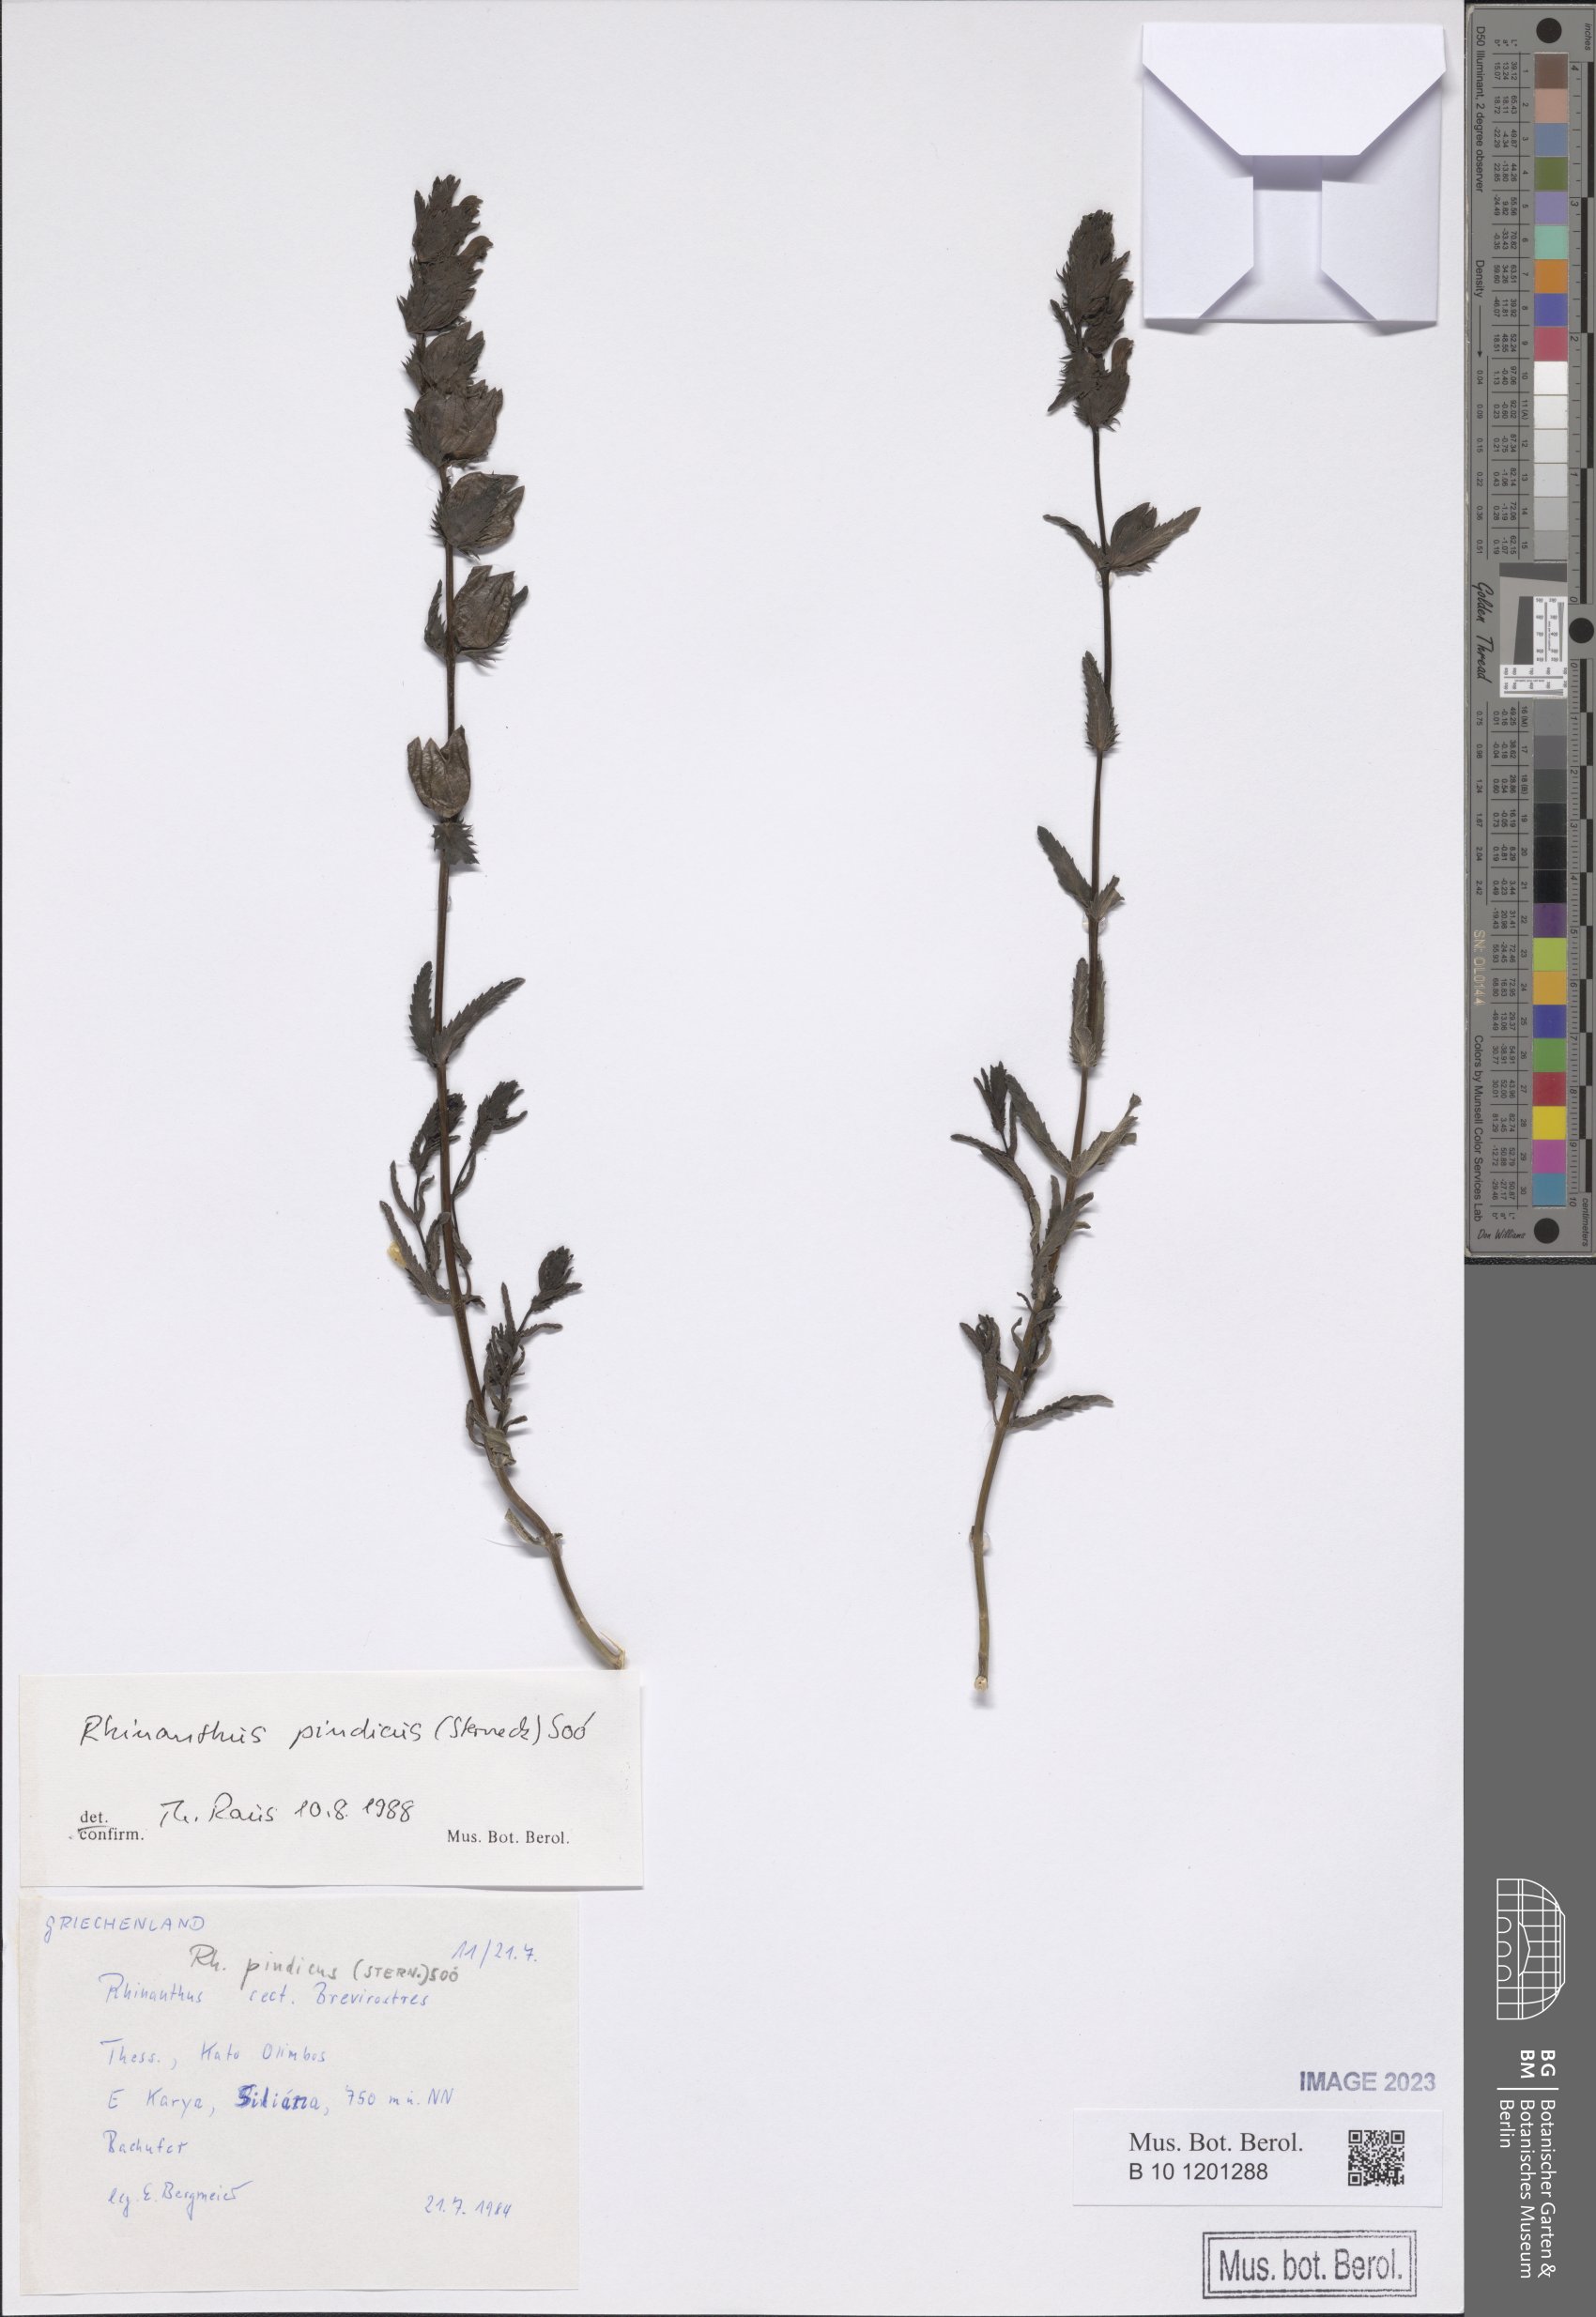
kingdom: Plantae
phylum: Tracheophyta
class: Magnoliopsida
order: Lamiales
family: Orobanchaceae
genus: Rhinanthus
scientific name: Rhinanthus pindicus
